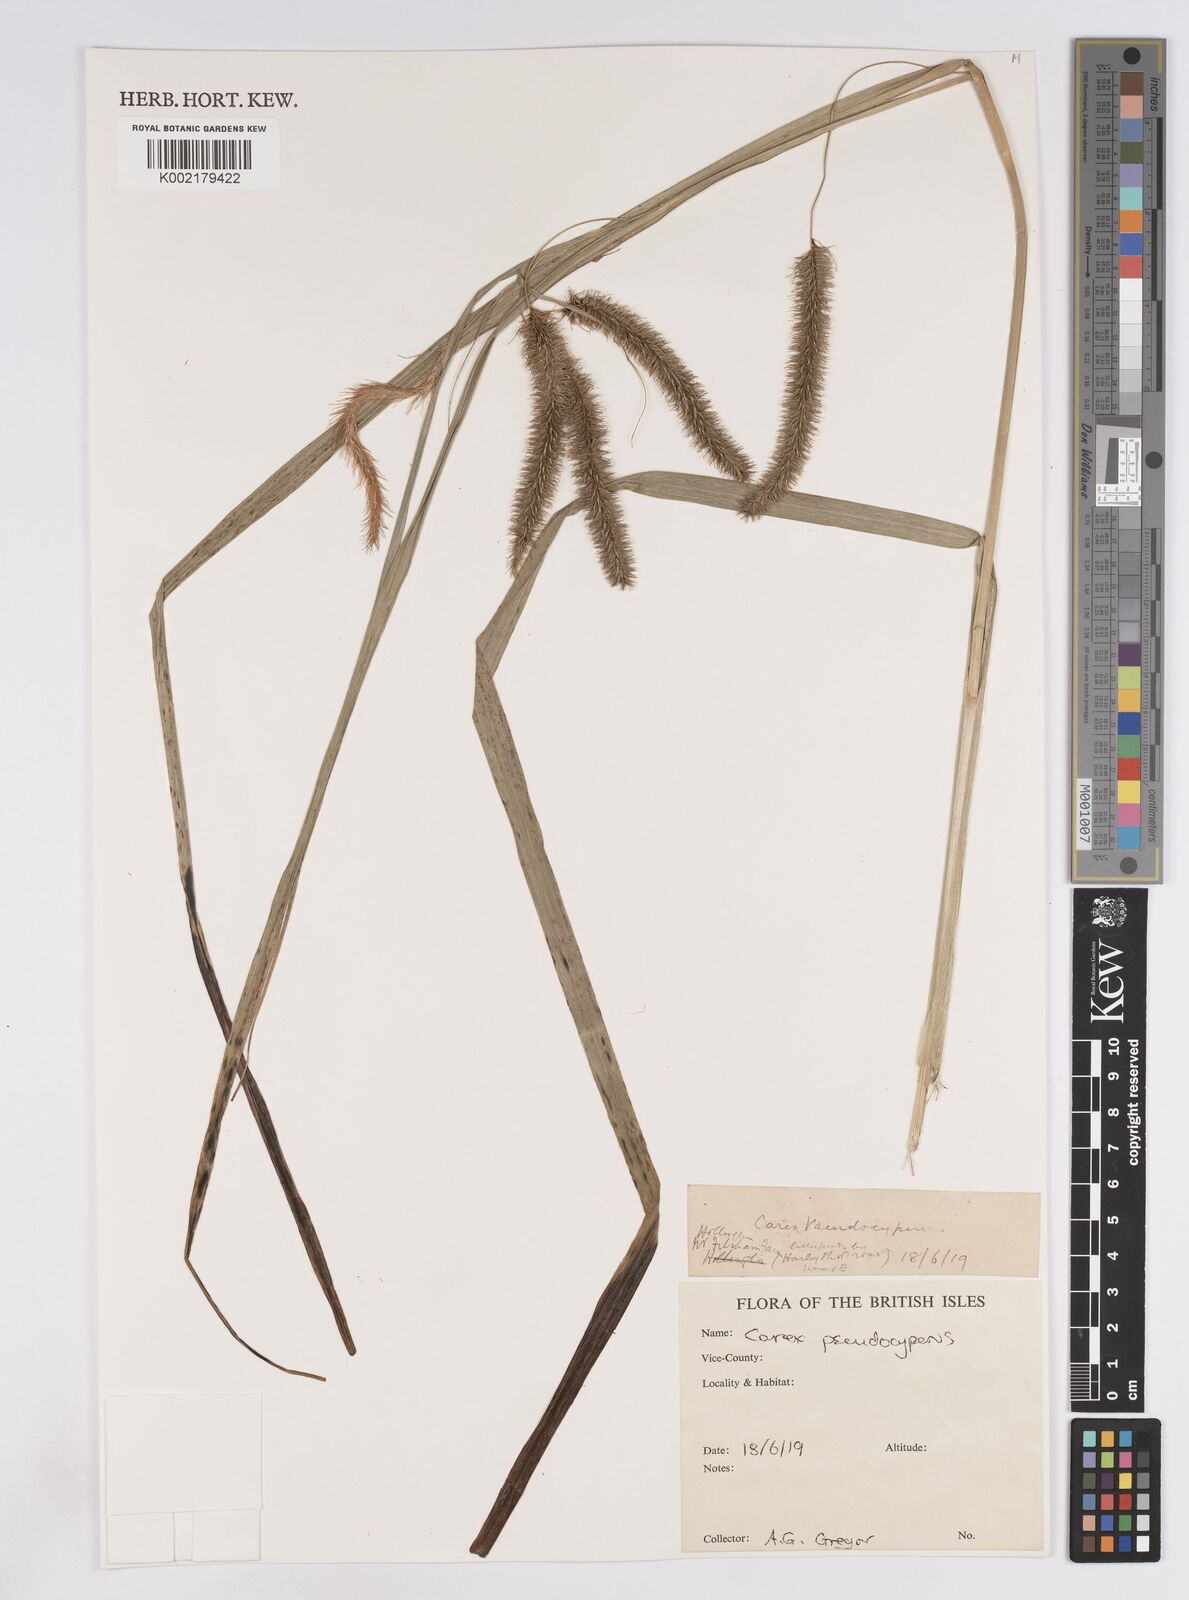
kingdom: Plantae
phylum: Tracheophyta
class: Liliopsida
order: Poales
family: Cyperaceae
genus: Carex
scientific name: Carex pseudocyperus
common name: Cyperus sedge
